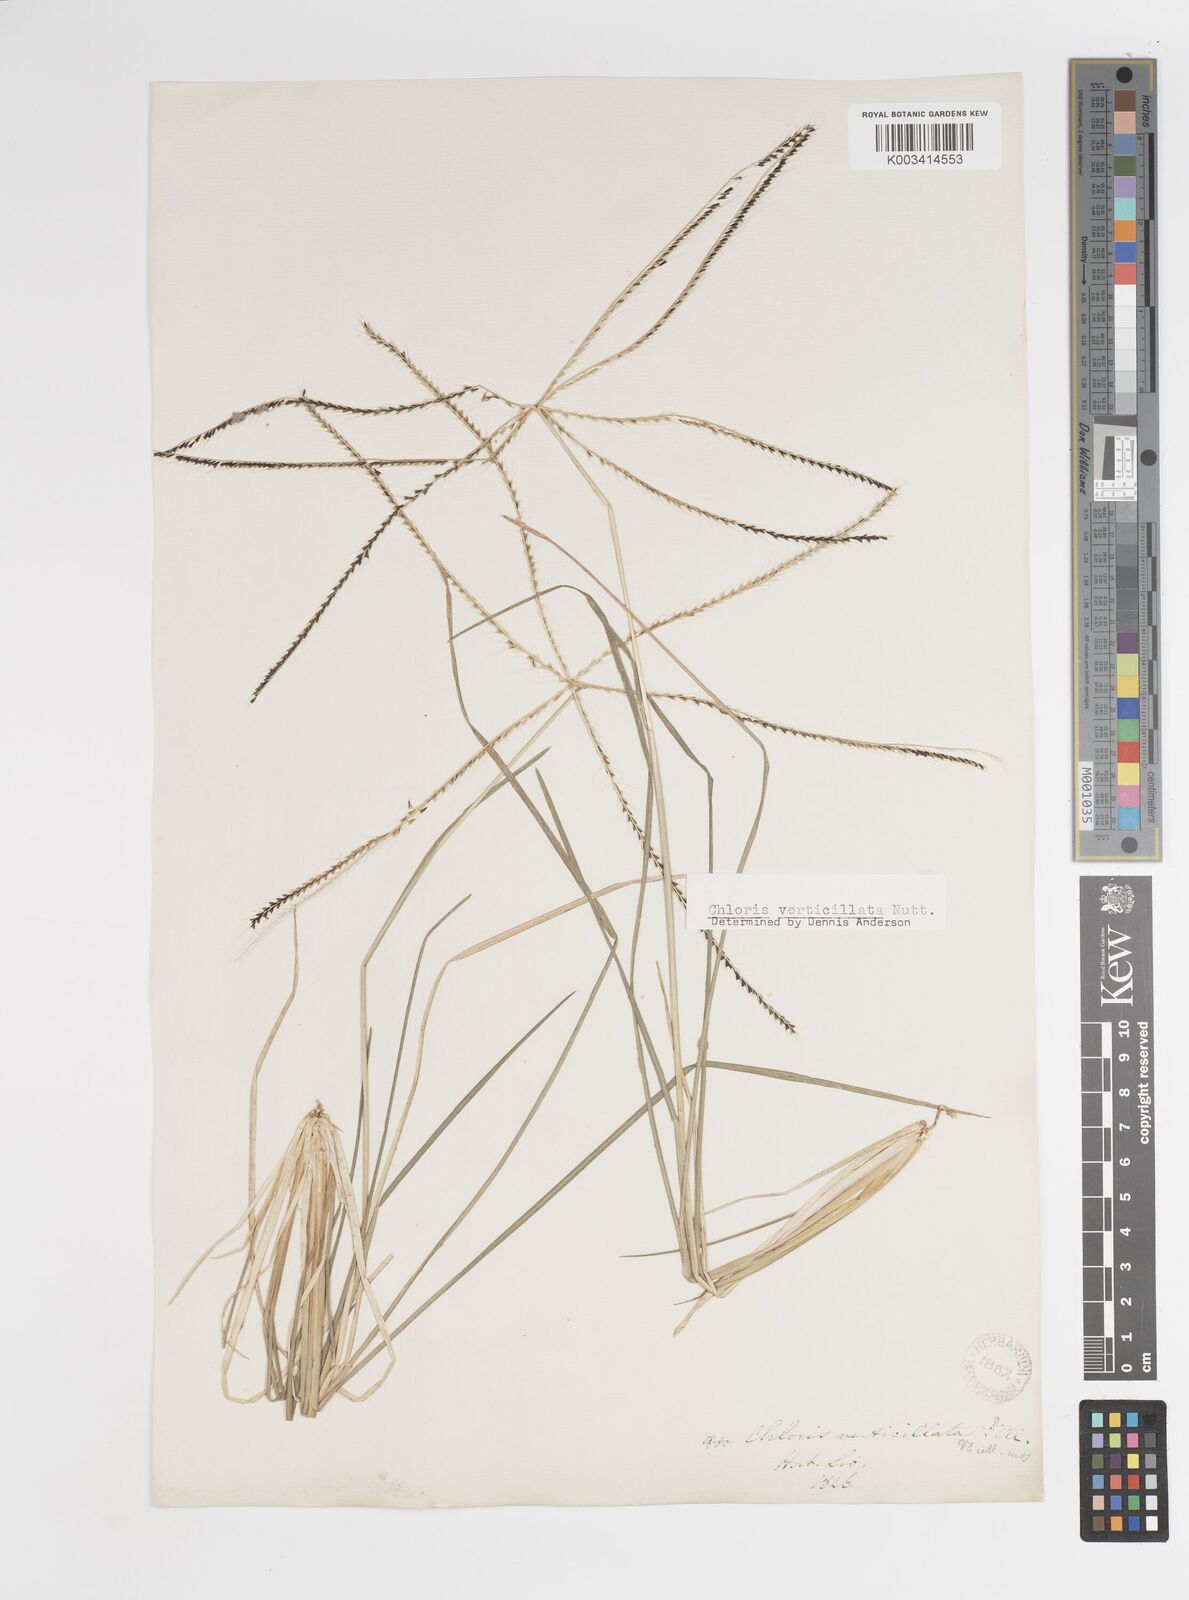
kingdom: Plantae
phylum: Tracheophyta
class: Liliopsida
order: Poales
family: Poaceae
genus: Chloris
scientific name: Chloris verticillata
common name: Tumble windmill grass
